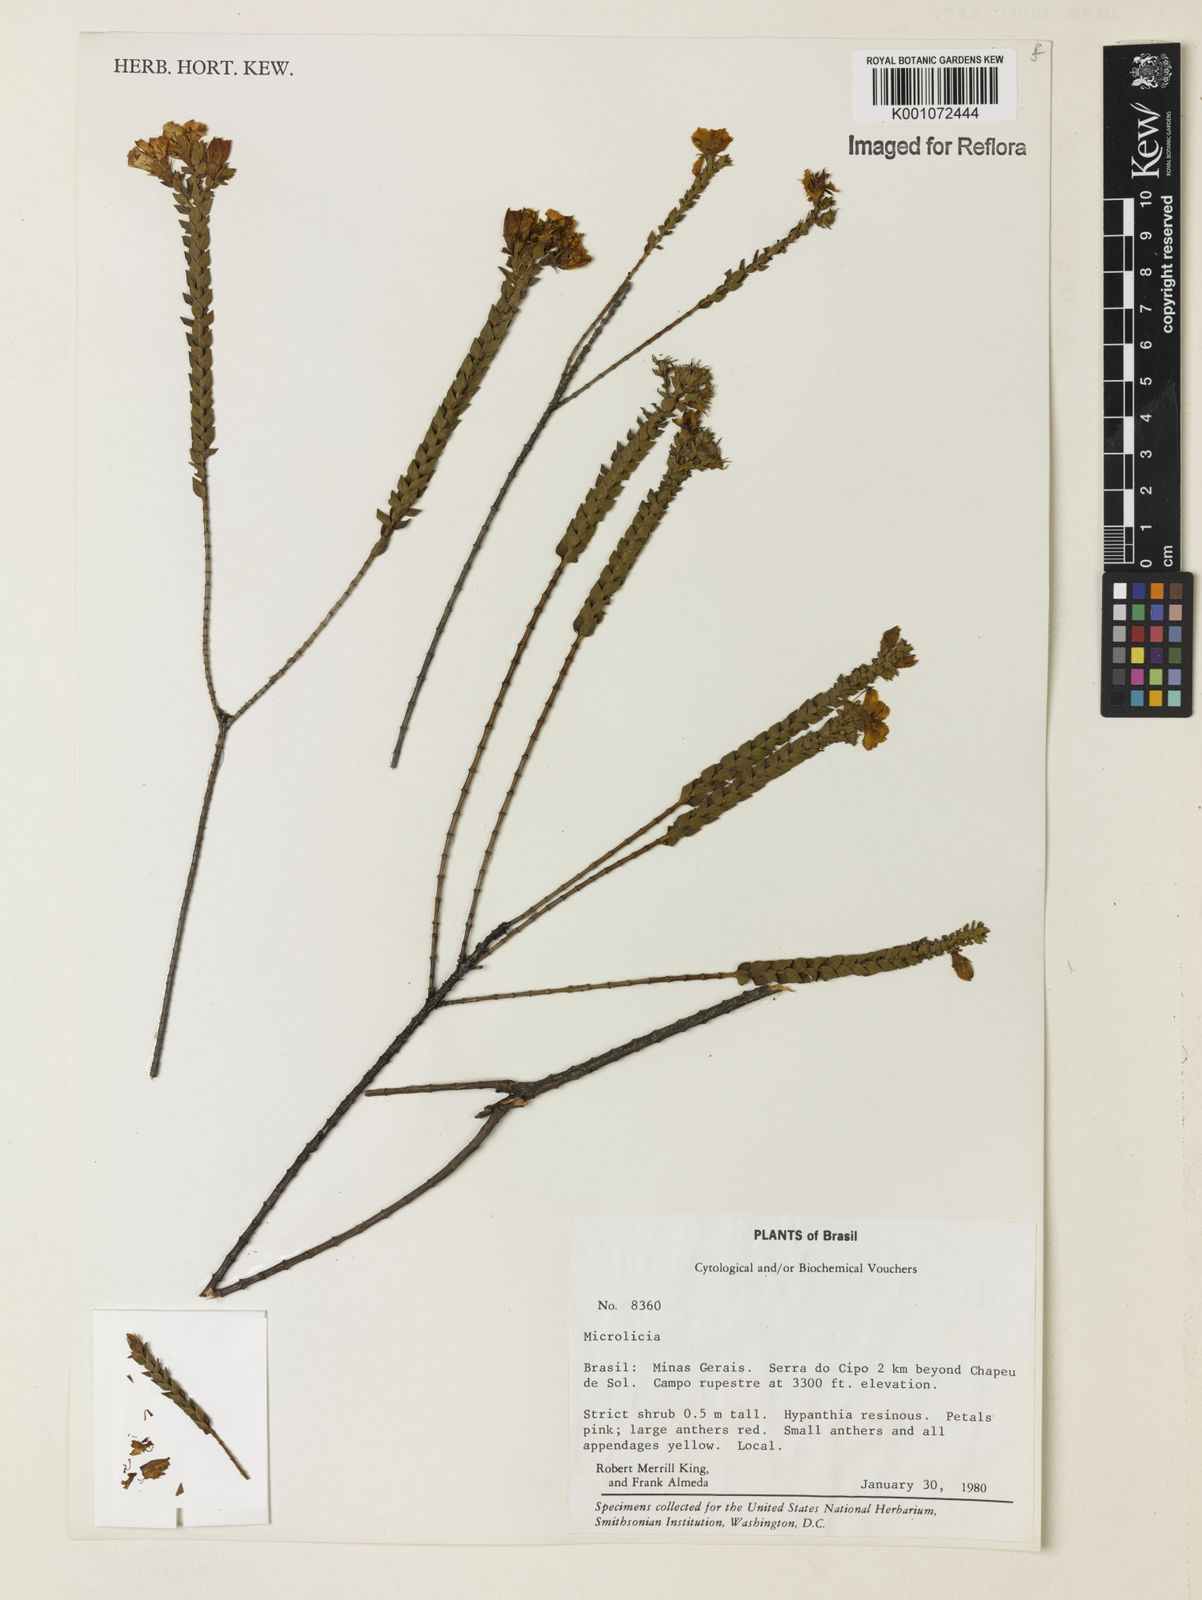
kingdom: Plantae
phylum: Tracheophyta
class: Magnoliopsida
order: Myrtales
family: Melastomataceae
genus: Microlicia
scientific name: Microlicia
